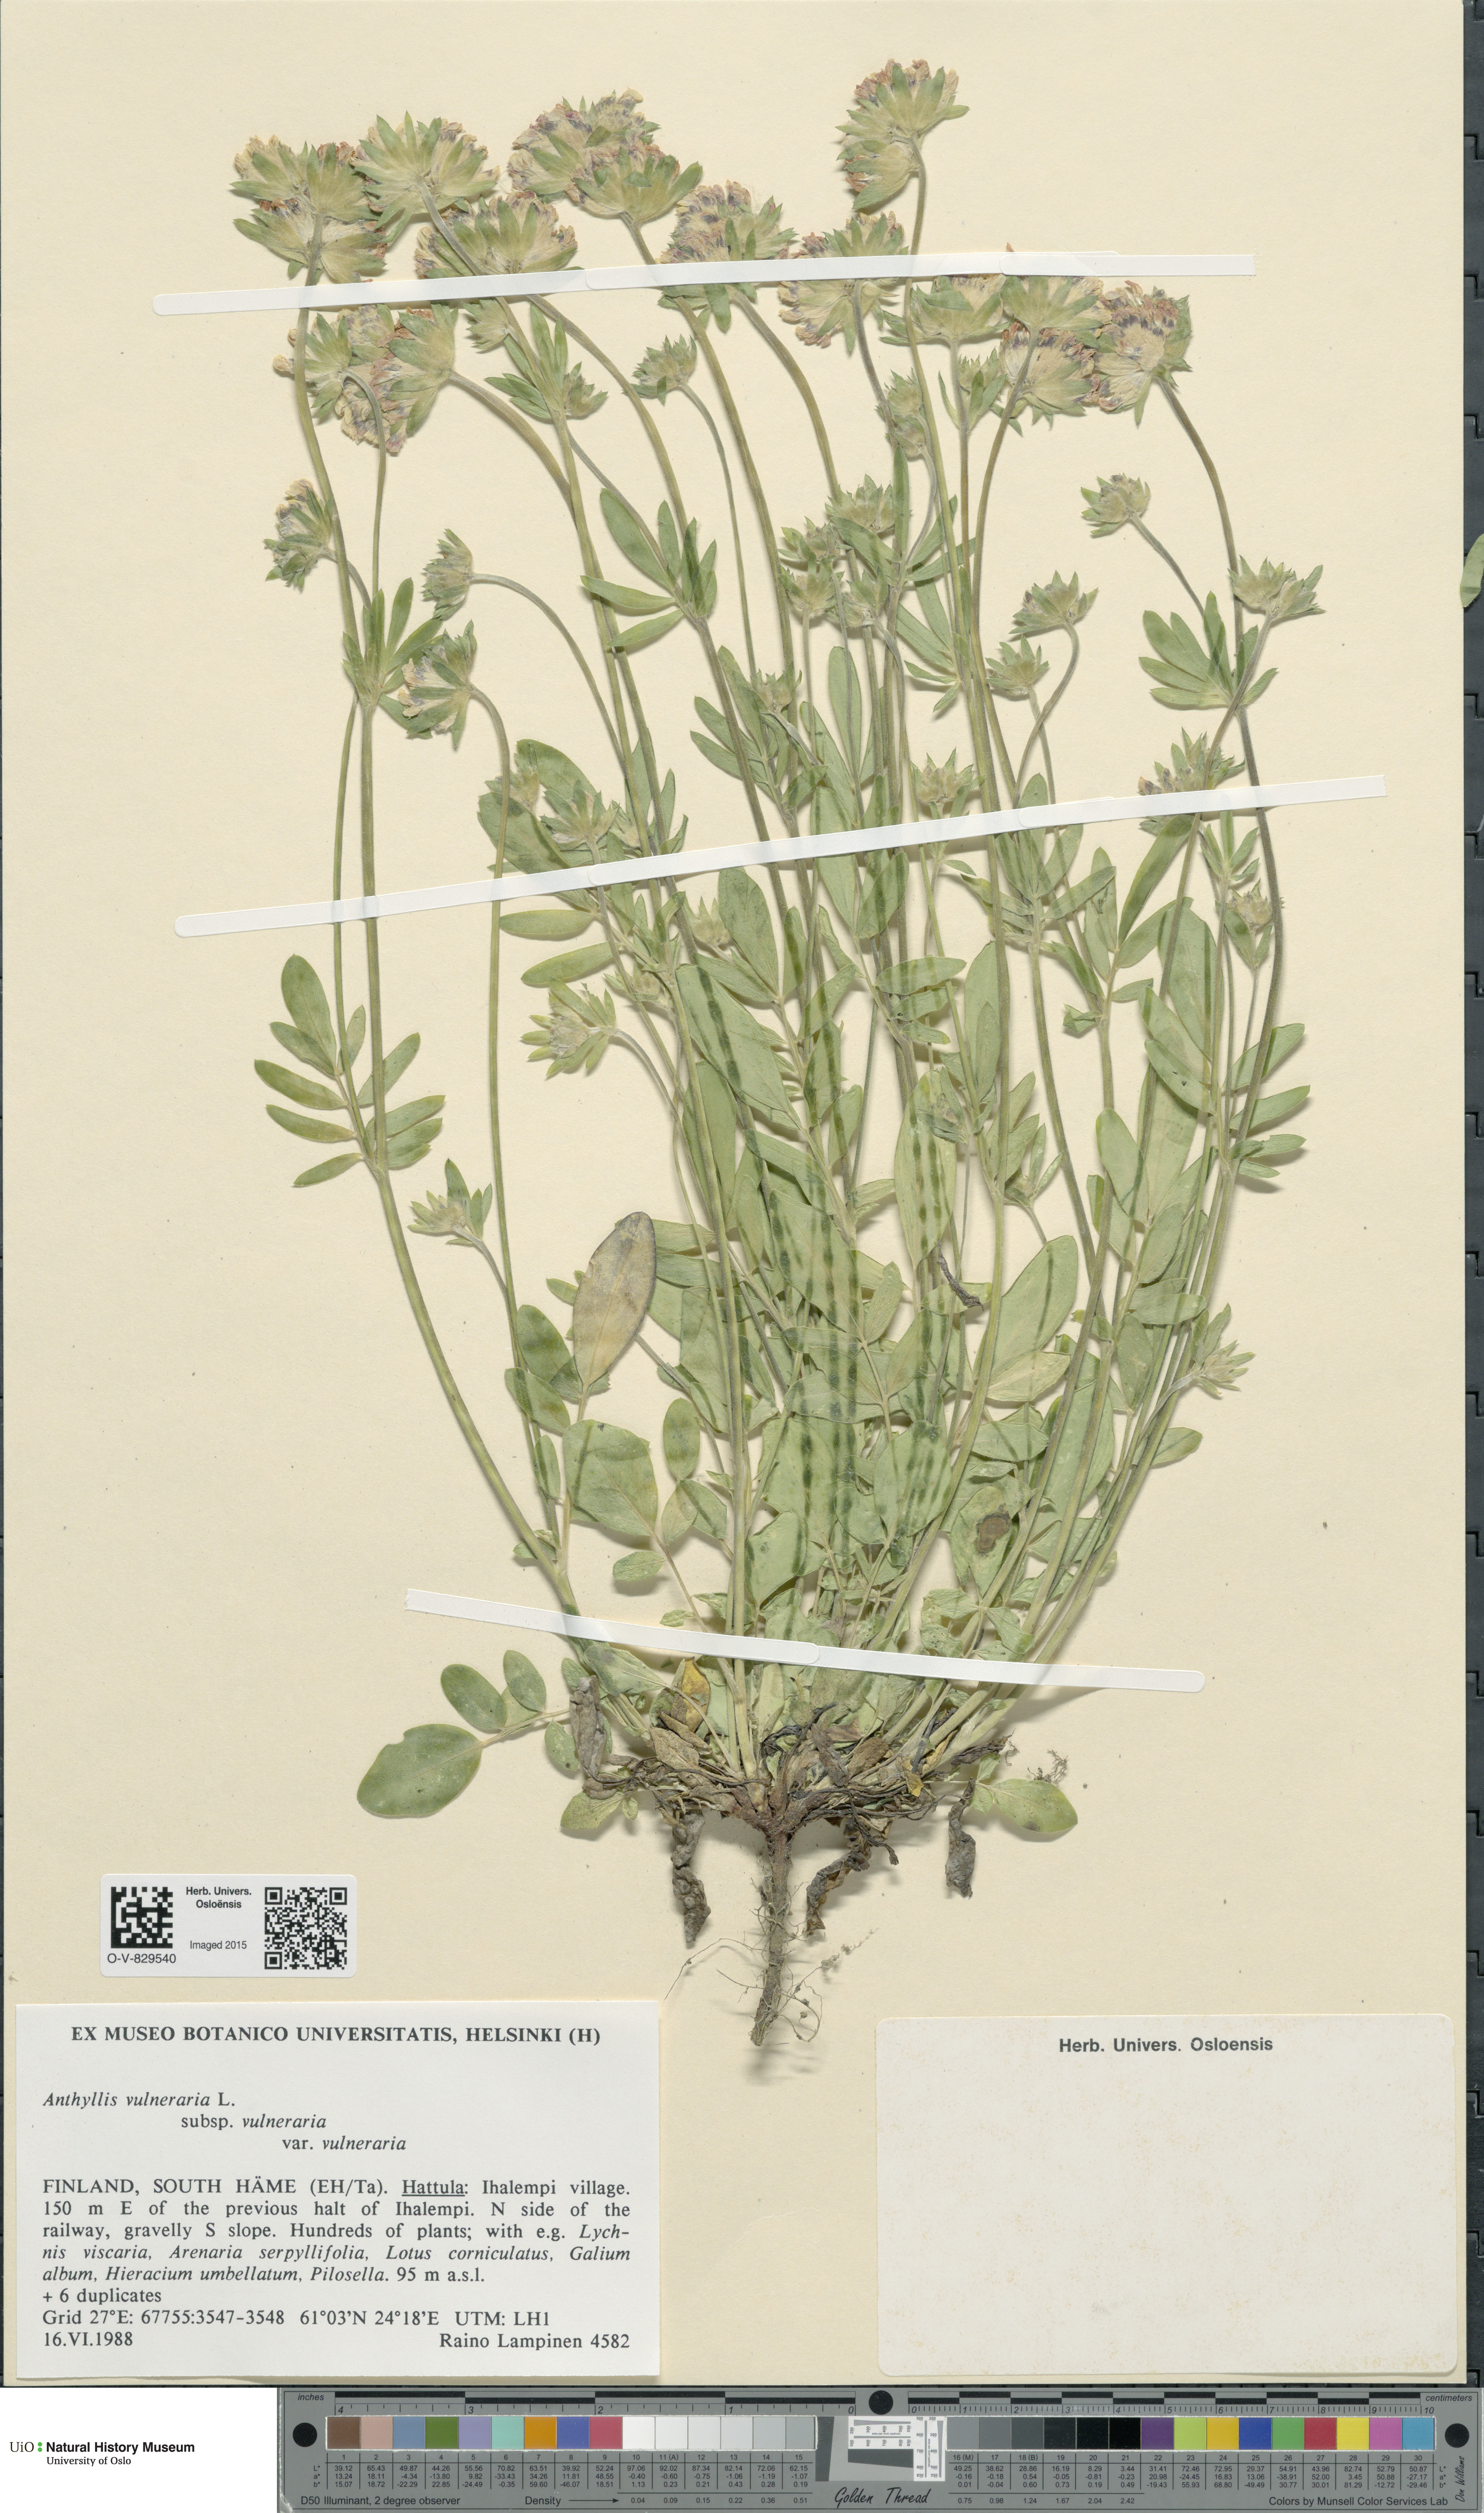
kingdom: Plantae
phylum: Tracheophyta
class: Magnoliopsida
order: Fabales
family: Fabaceae
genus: Anthyllis
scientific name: Anthyllis vulneraria
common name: Kidney vetch
